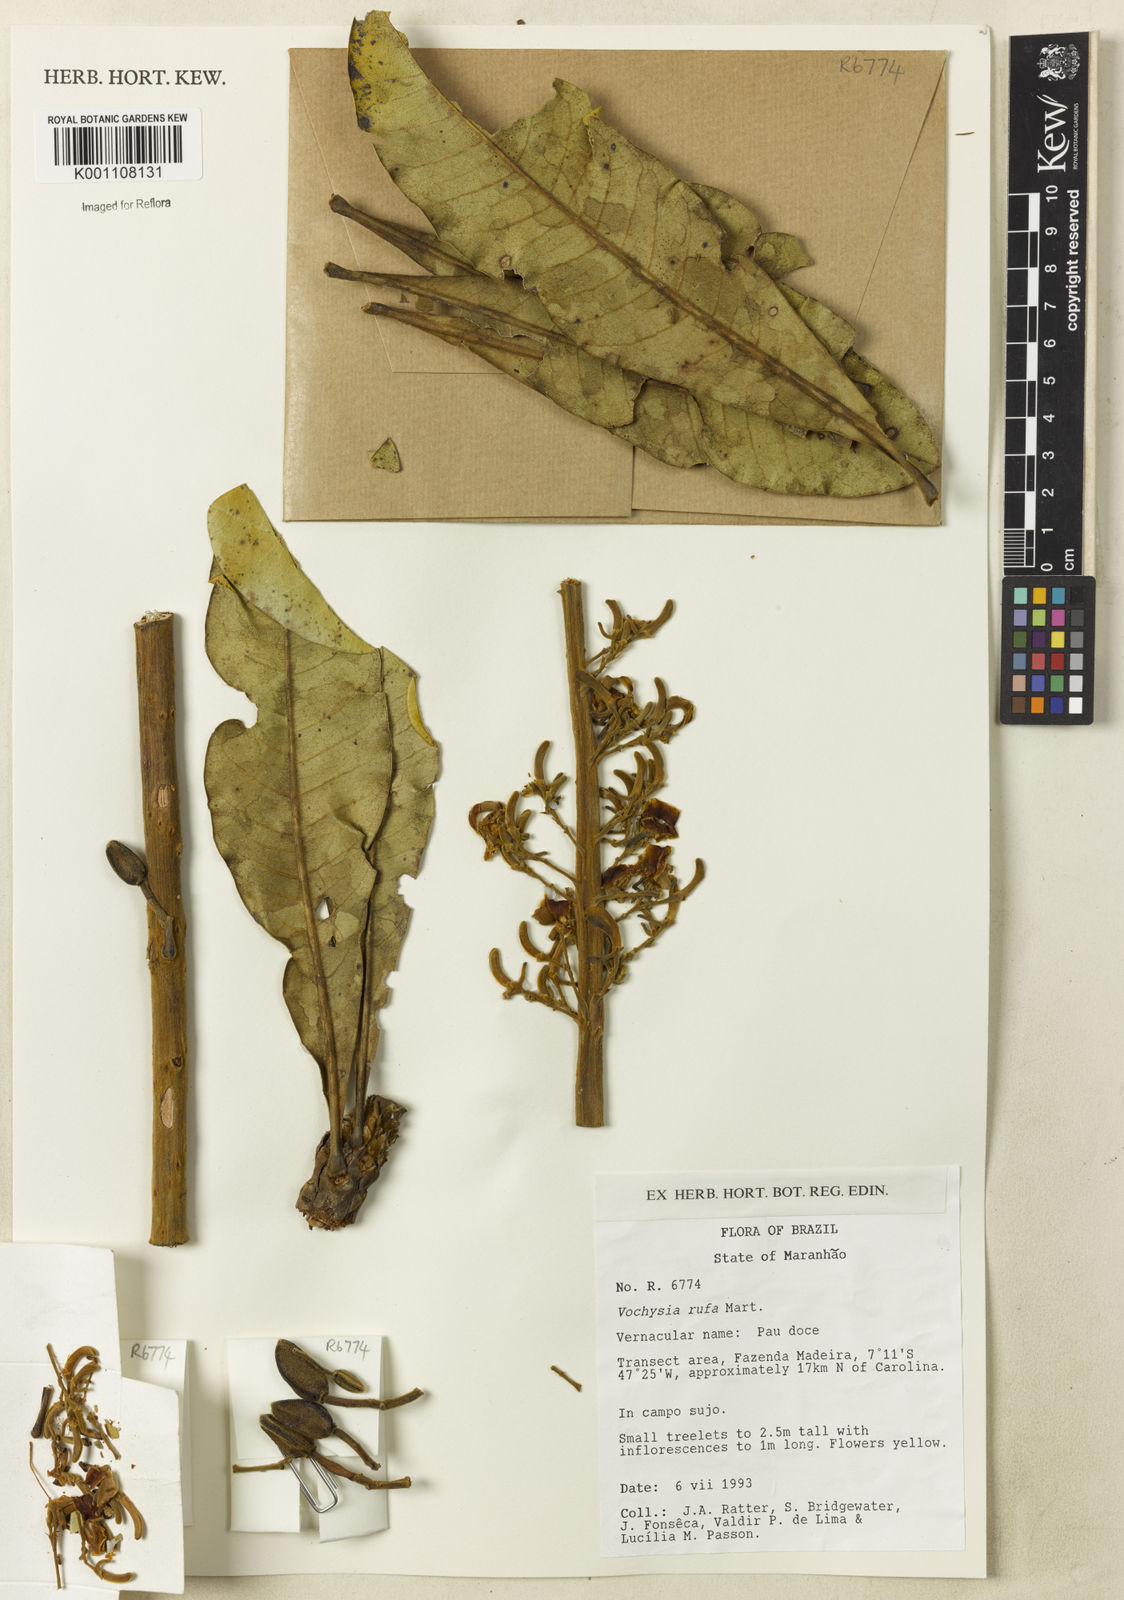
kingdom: Plantae
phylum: Tracheophyta
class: Magnoliopsida
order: Myrtales
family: Vochysiaceae
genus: Vochysia
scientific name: Vochysia rufa
